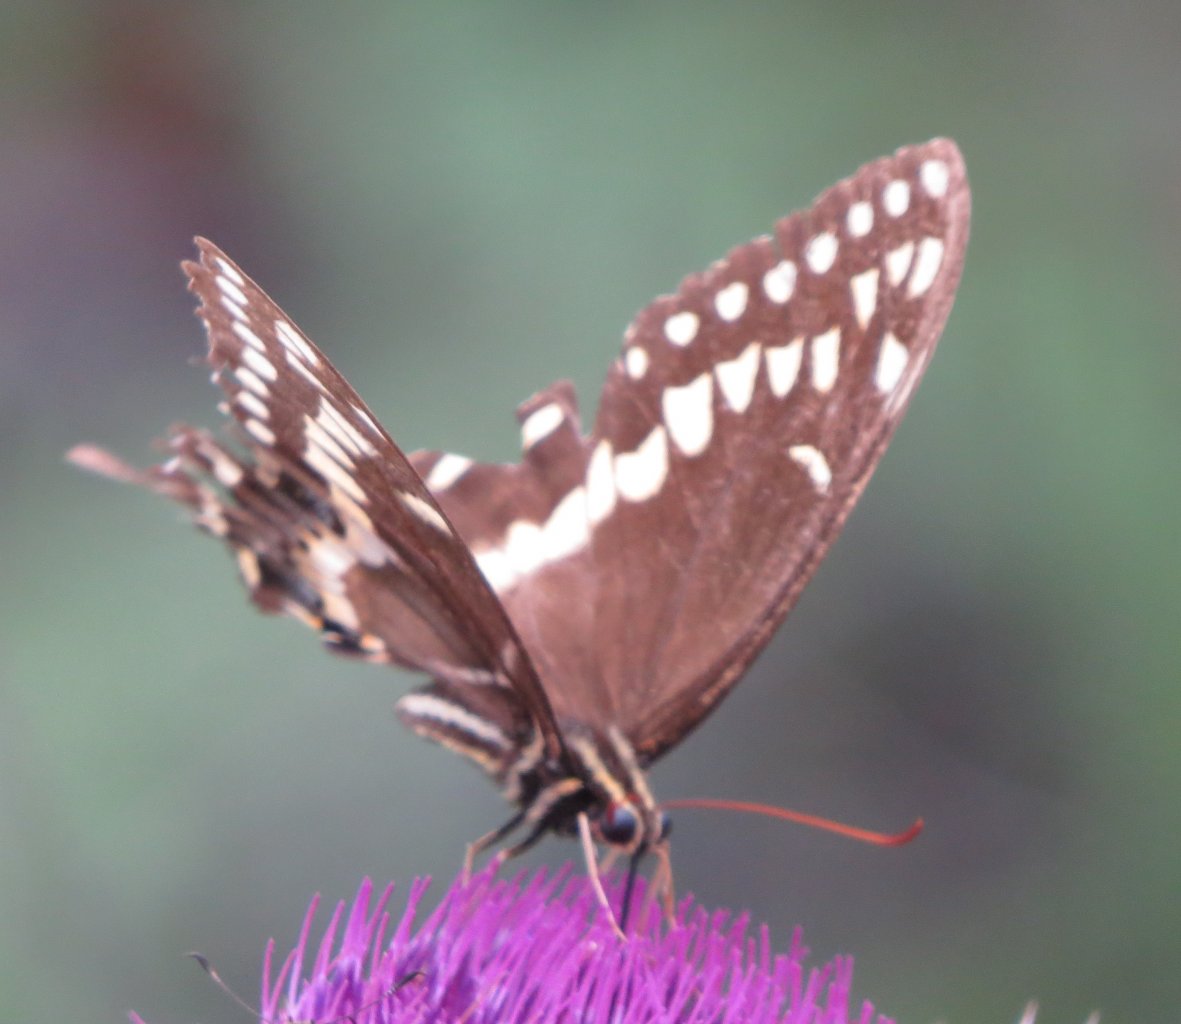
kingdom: Animalia
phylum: Arthropoda
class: Insecta
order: Lepidoptera
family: Papilionidae
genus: Pterourus
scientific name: Pterourus palamedes
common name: Palamedes Swallowtail
